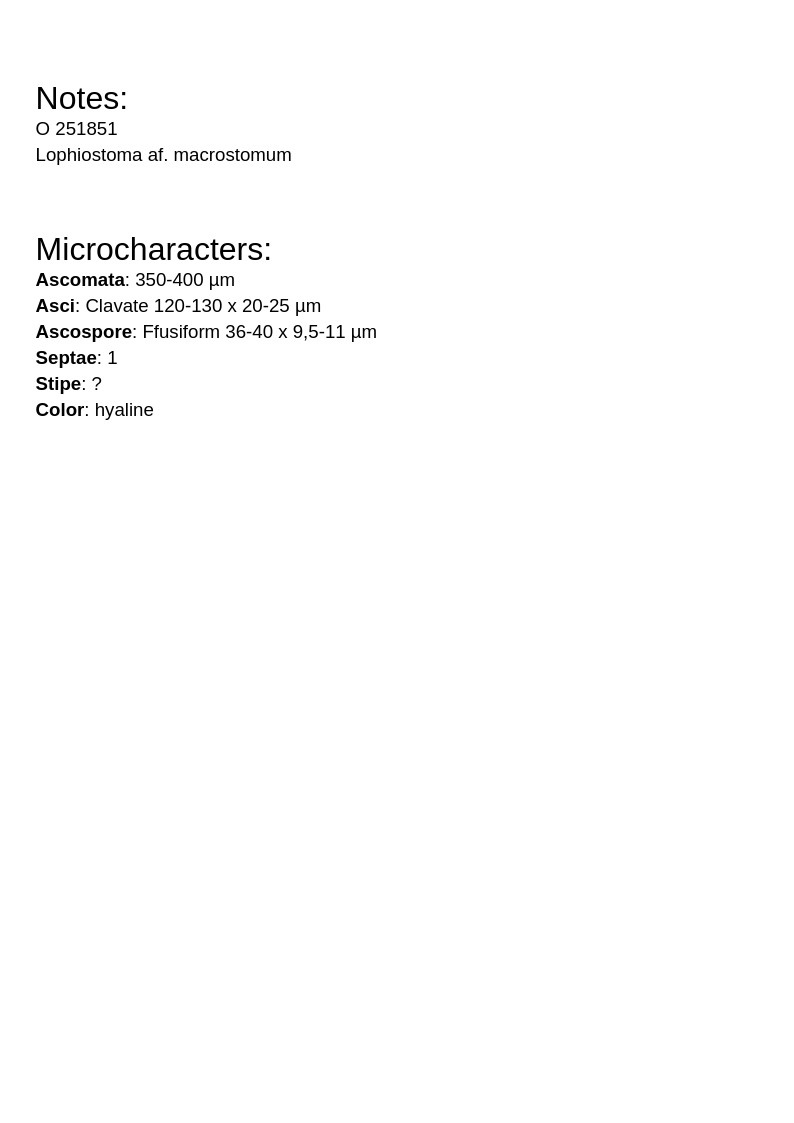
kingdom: Fungi
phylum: Ascomycota
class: Dothideomycetes
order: Pleosporales
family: Lophiostomataceae
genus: Lophiostoma
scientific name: Lophiostoma macrostomum
